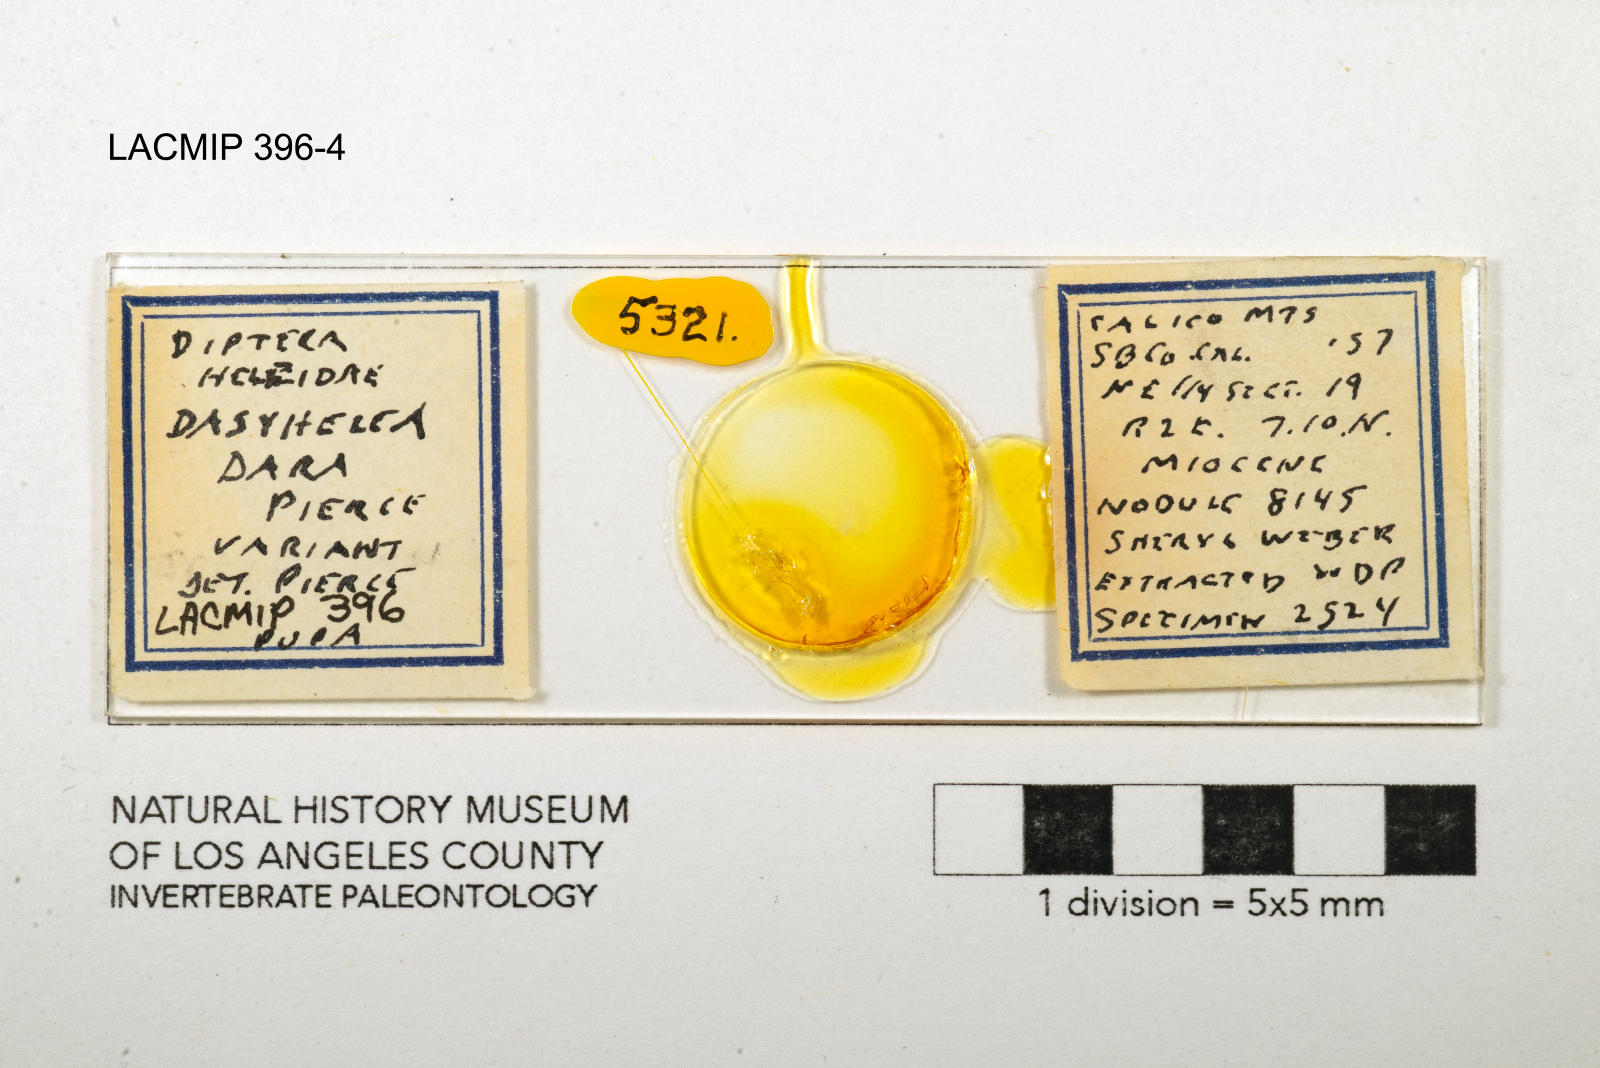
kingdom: Animalia
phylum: Arthropoda
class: Insecta
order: Diptera
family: Ceratopogonidae
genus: Dasyhelea
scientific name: Dasyhelea dara
